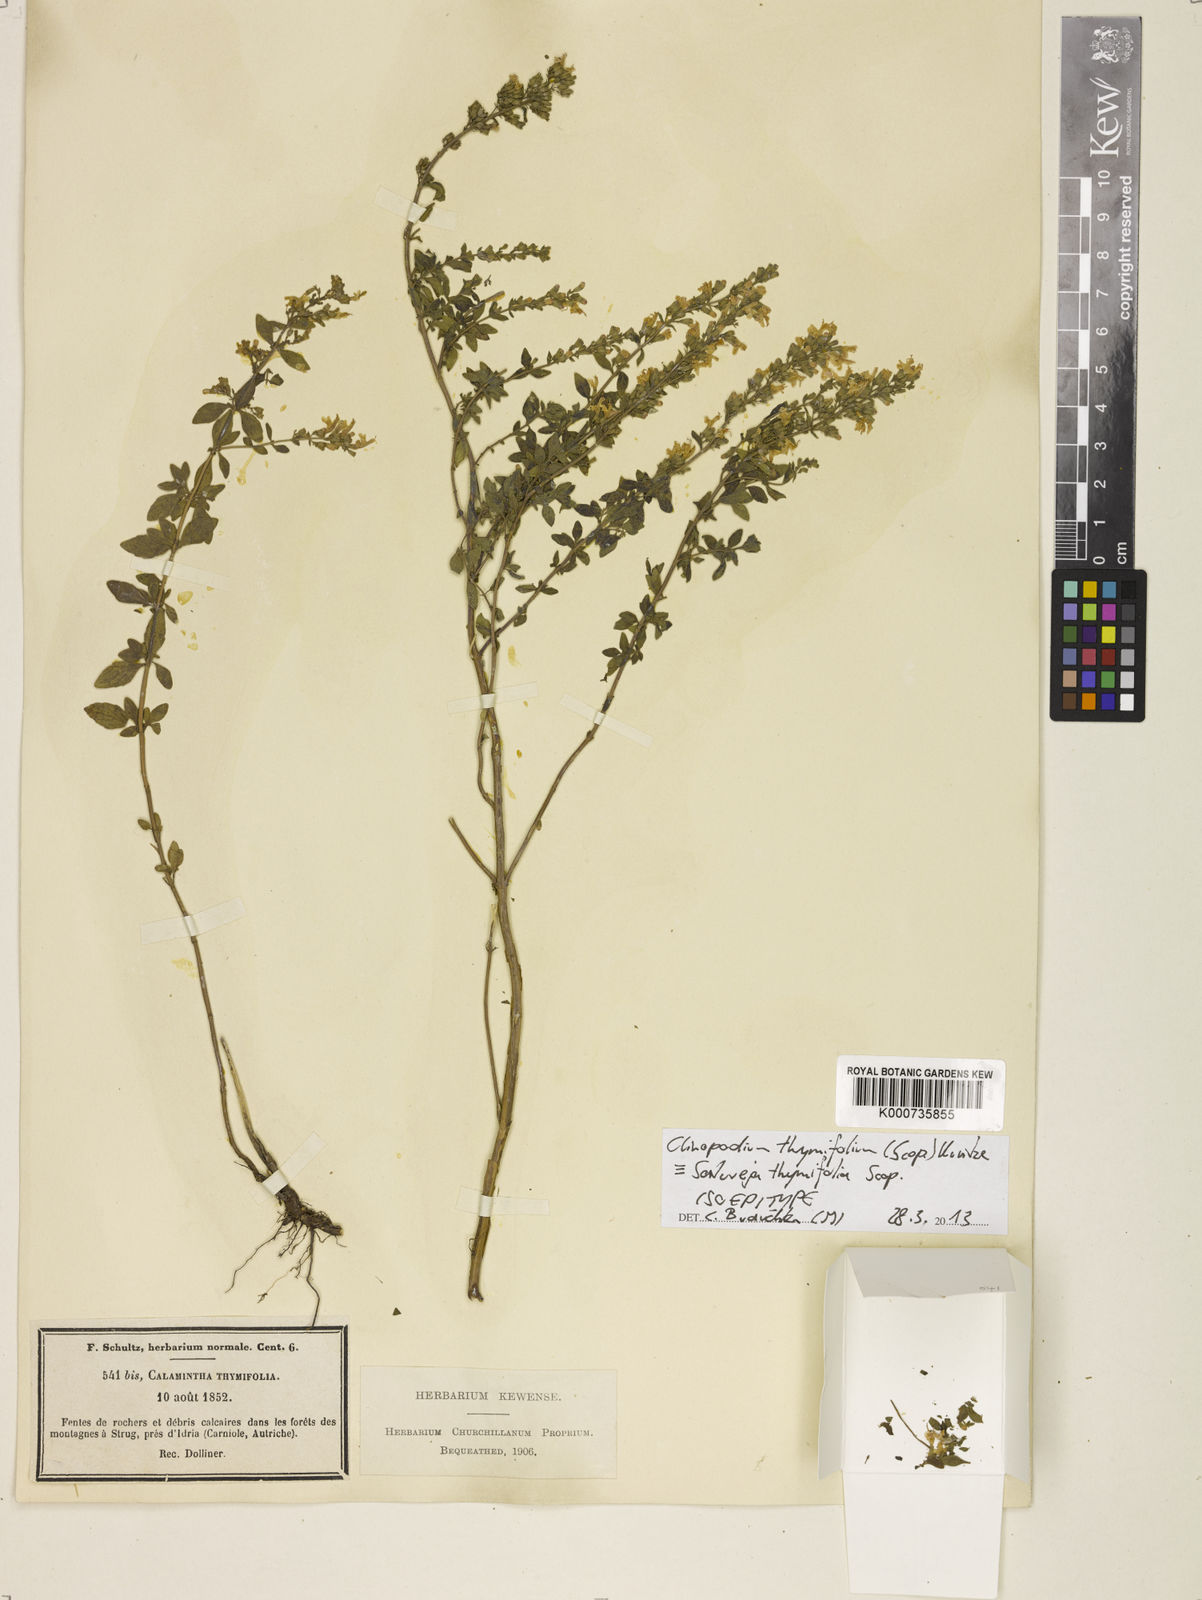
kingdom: Plantae
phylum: Tracheophyta
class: Magnoliopsida
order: Lamiales
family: Lamiaceae
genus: Clinopodium
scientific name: Clinopodium hostii
